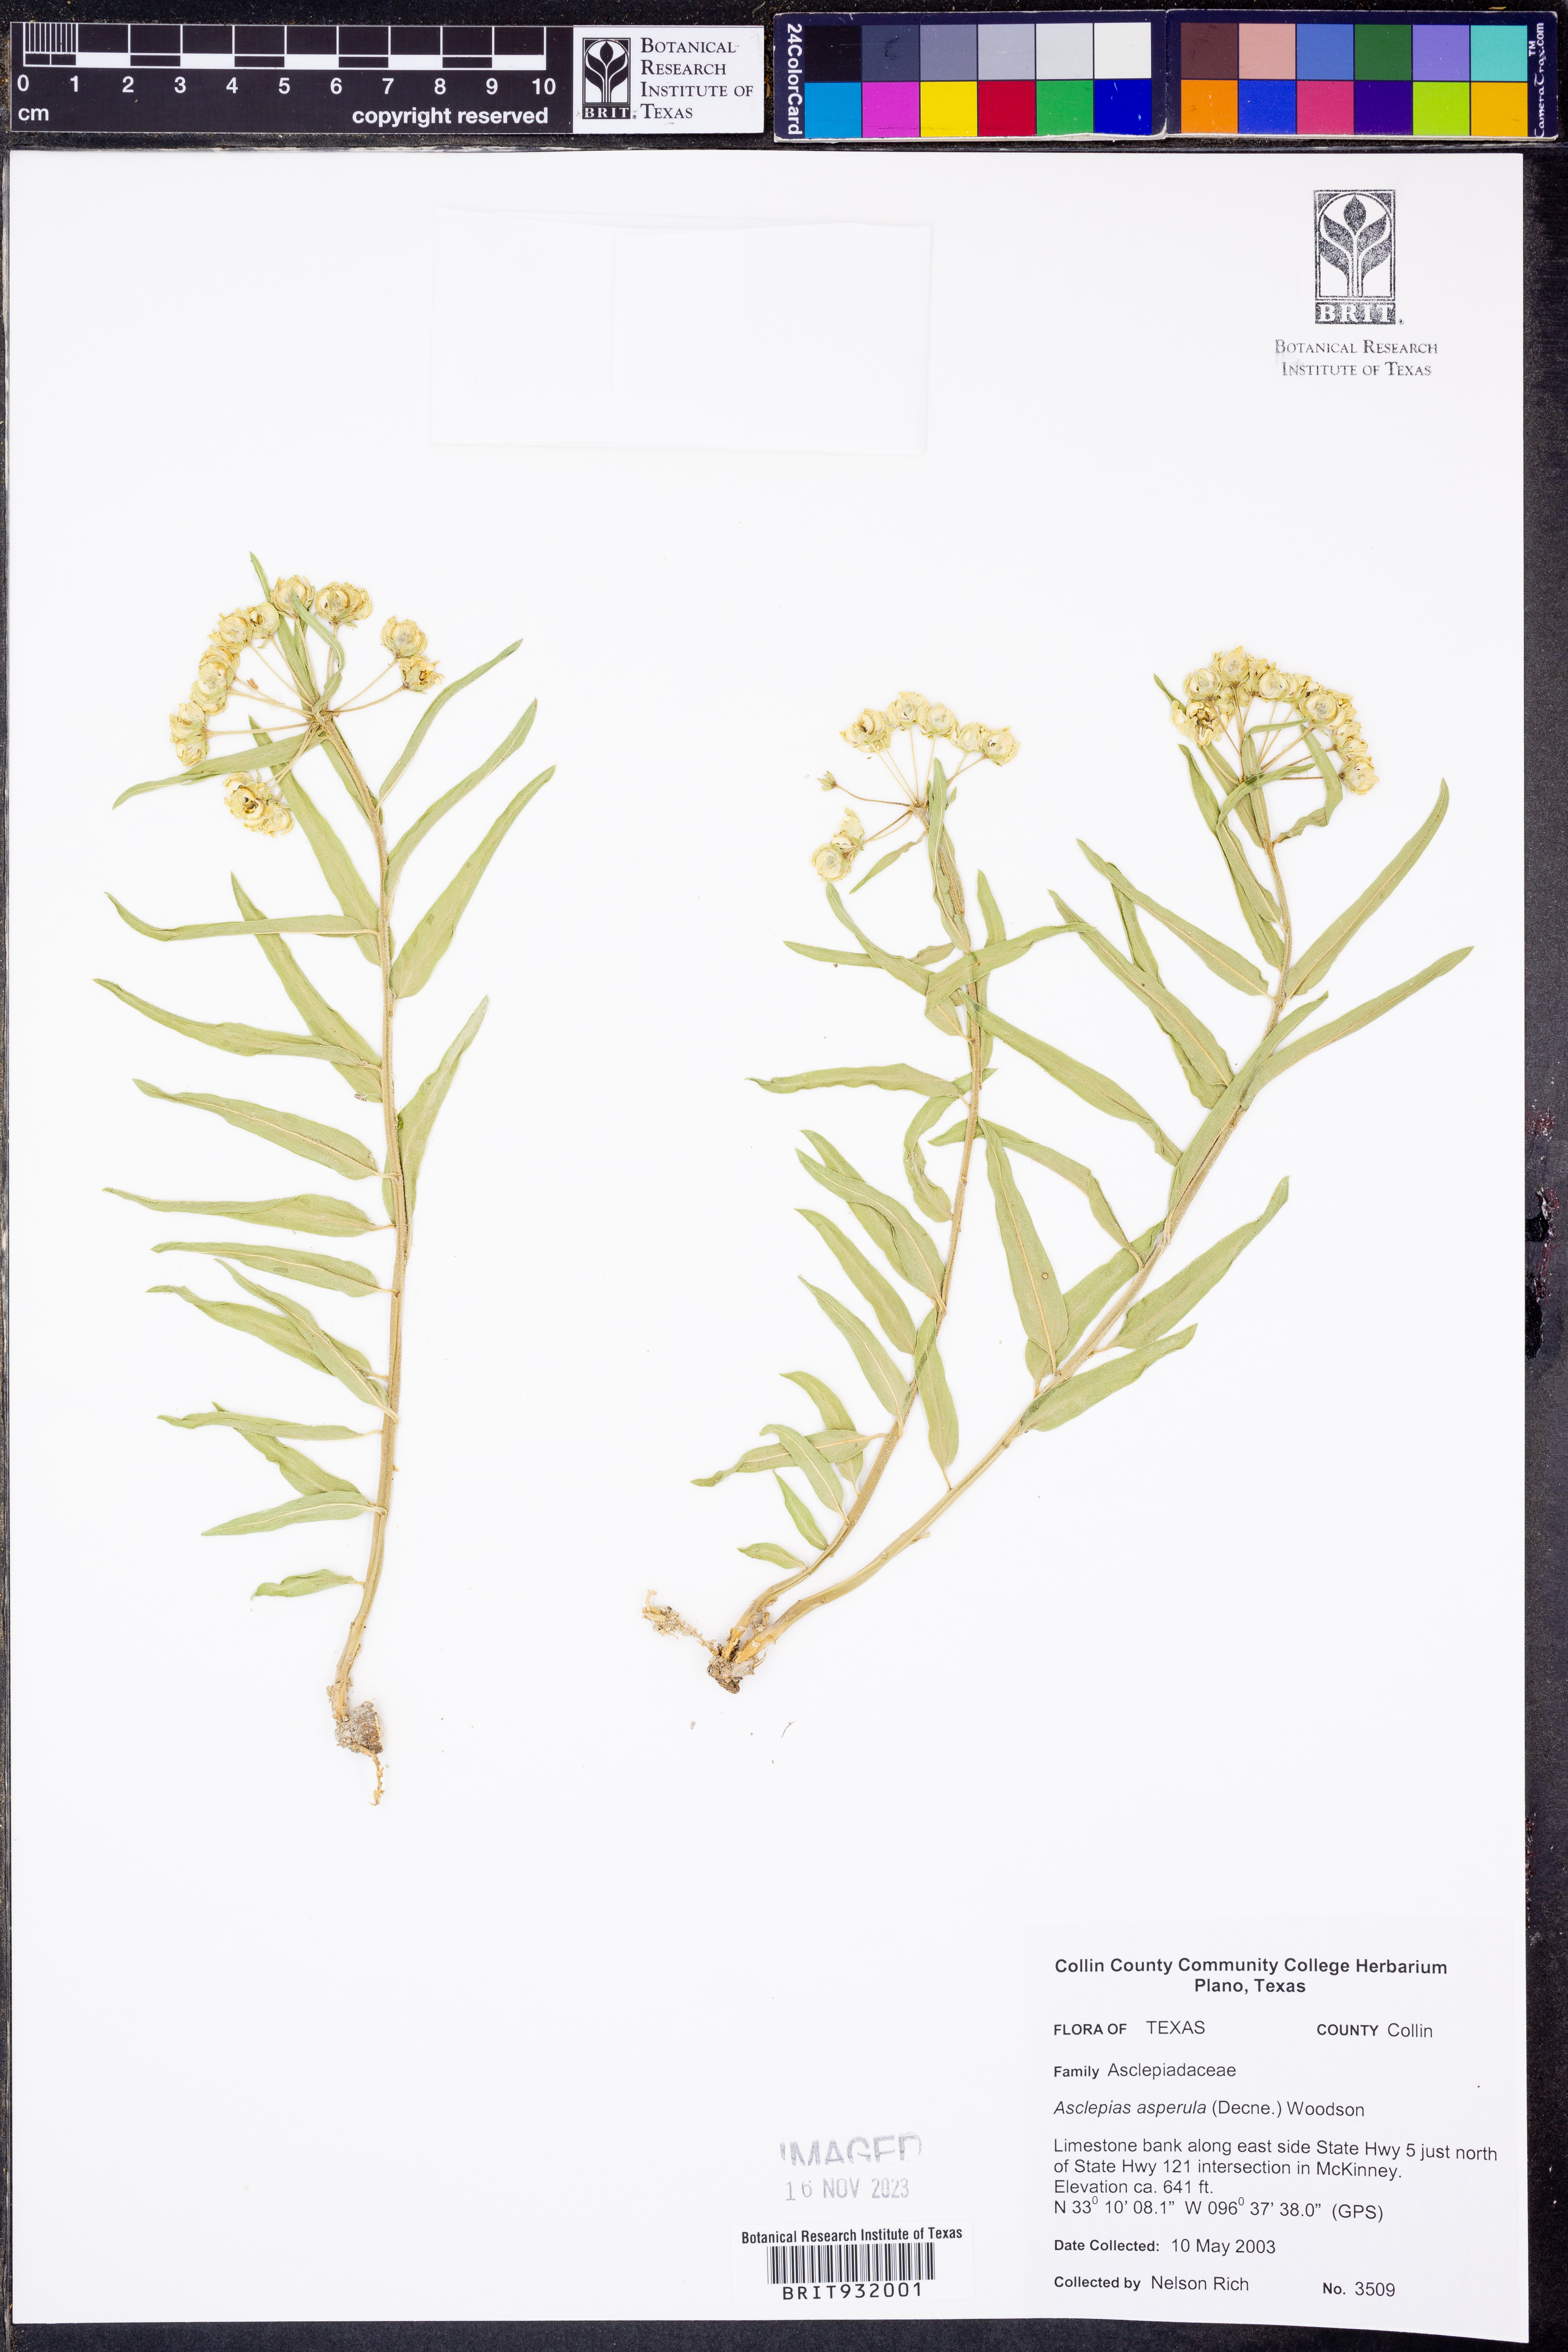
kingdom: Plantae
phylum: Tracheophyta
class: Magnoliopsida
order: Gentianales
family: Apocynaceae
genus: Asclepias
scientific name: Asclepias asperula
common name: Antelope horns
